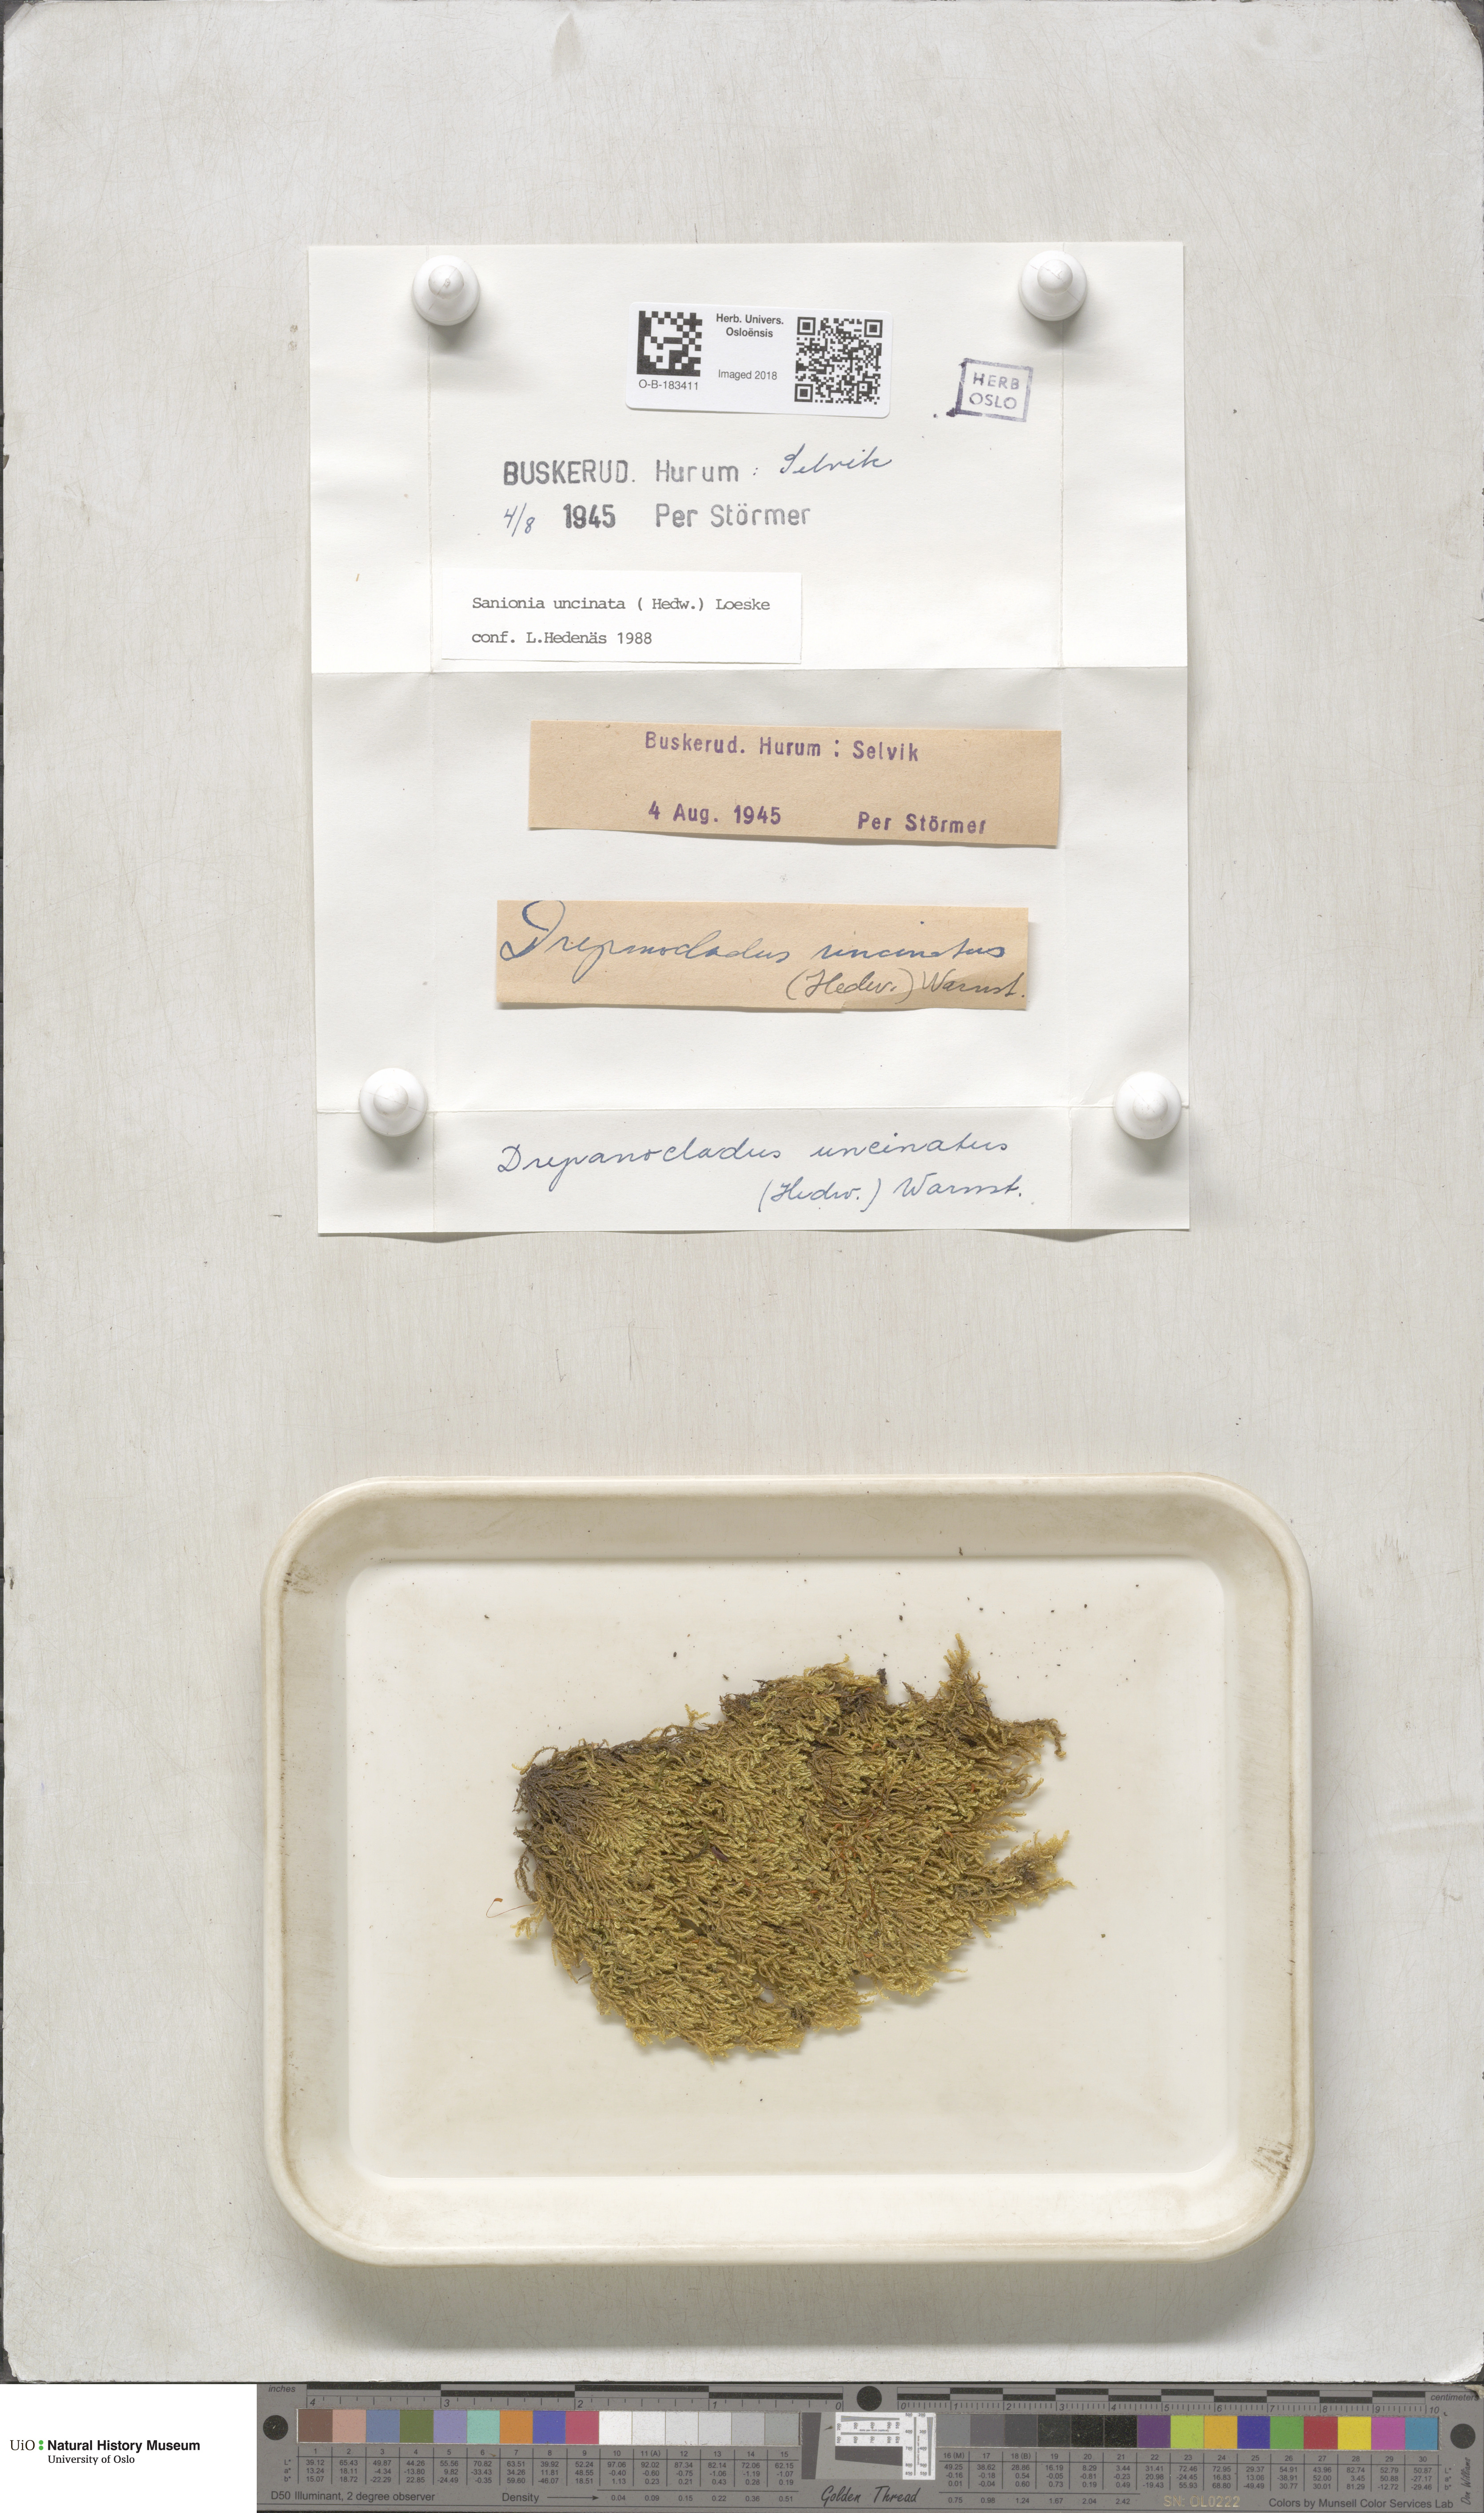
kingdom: Plantae
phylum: Bryophyta
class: Bryopsida
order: Hypnales
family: Scorpidiaceae
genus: Sanionia
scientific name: Sanionia uncinata
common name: Sickle moss
